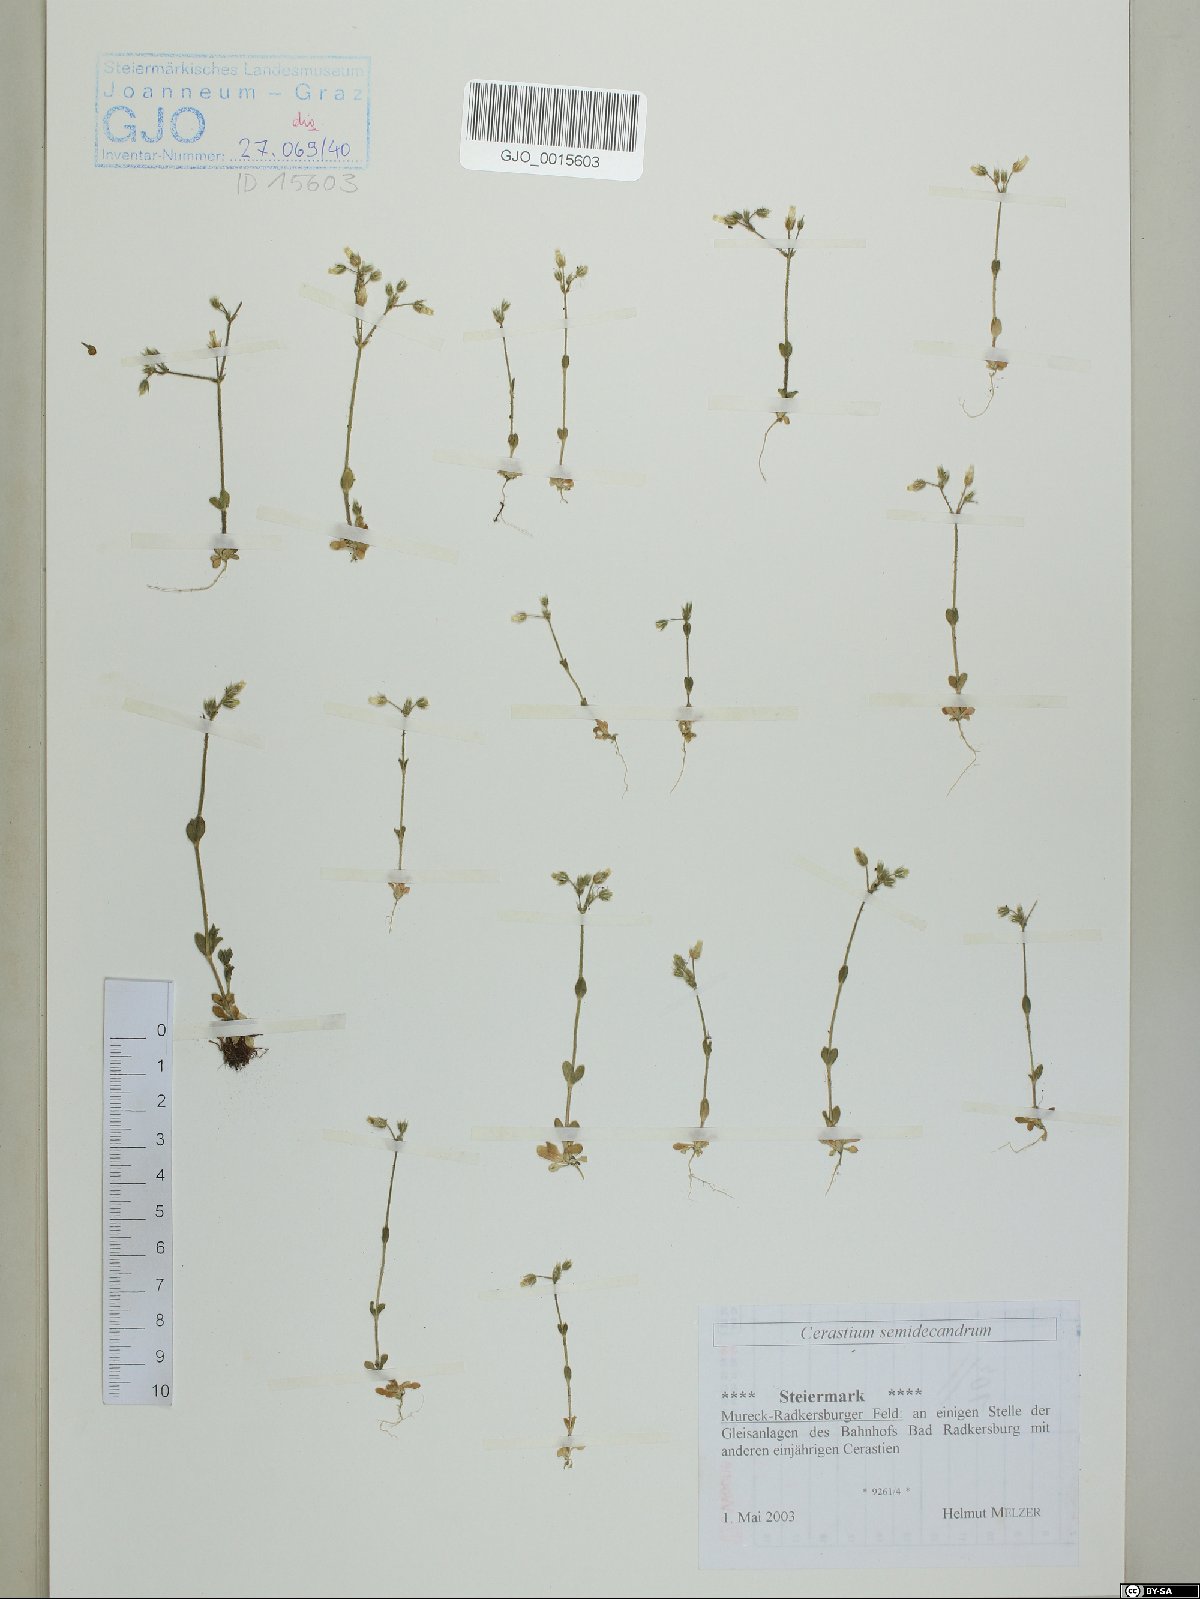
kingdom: Plantae
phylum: Tracheophyta
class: Magnoliopsida
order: Caryophyllales
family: Caryophyllaceae
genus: Cerastium
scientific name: Cerastium semidecandrum
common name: Little mouse-ear
